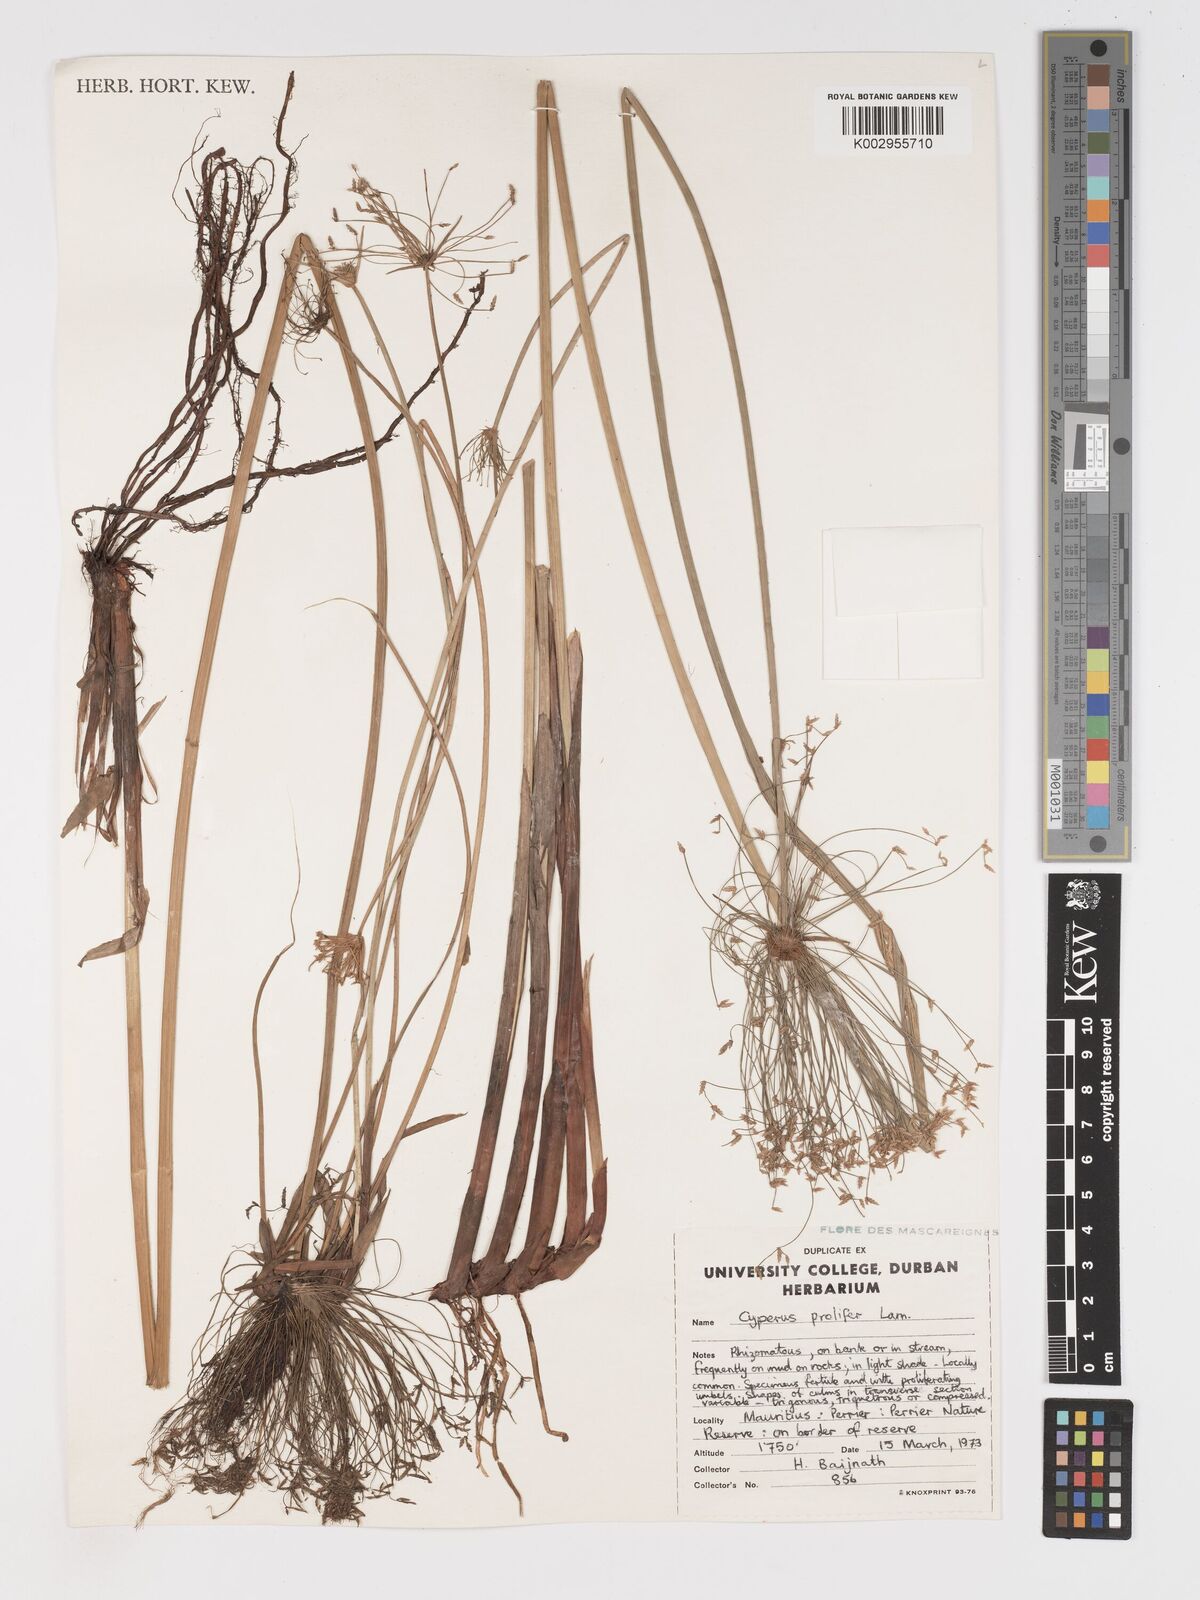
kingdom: Plantae
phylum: Tracheophyta
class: Liliopsida
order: Poales
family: Cyperaceae
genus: Cyperus
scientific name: Cyperus prolifer
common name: Miniature flatsedge
